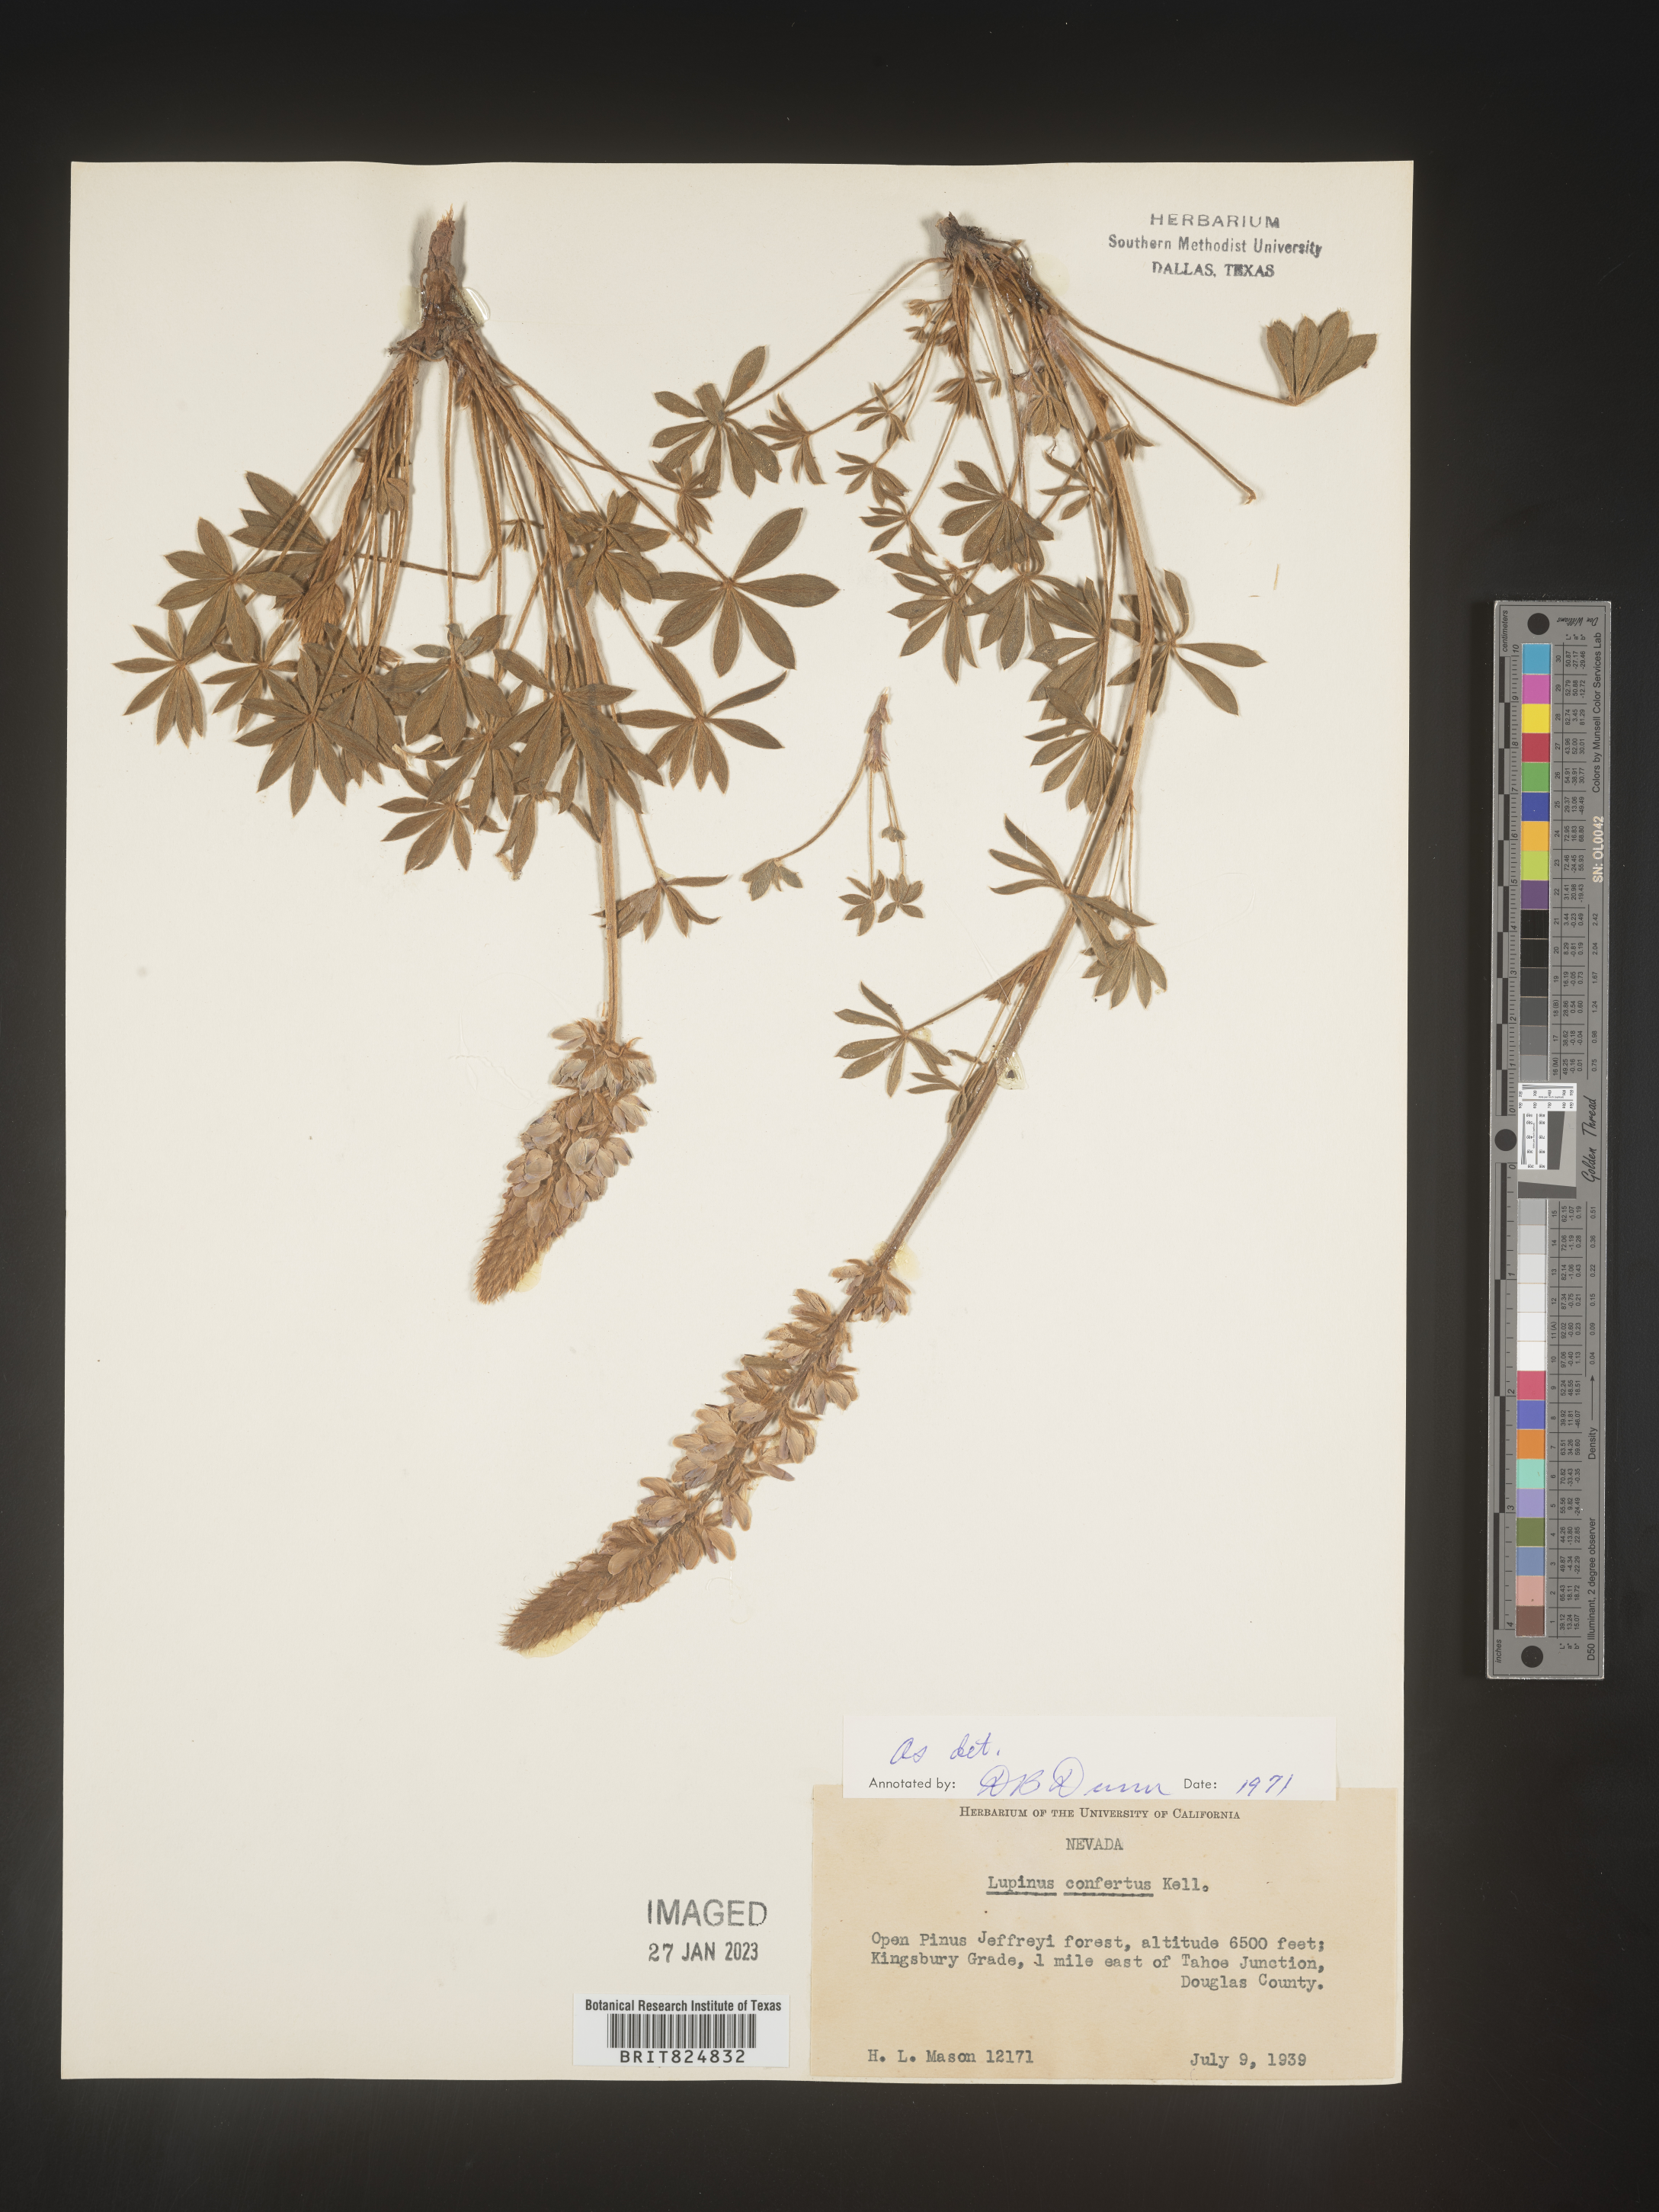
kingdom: Plantae
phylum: Tracheophyta
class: Magnoliopsida
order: Fabales
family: Fabaceae
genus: Lupinus
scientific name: Lupinus
